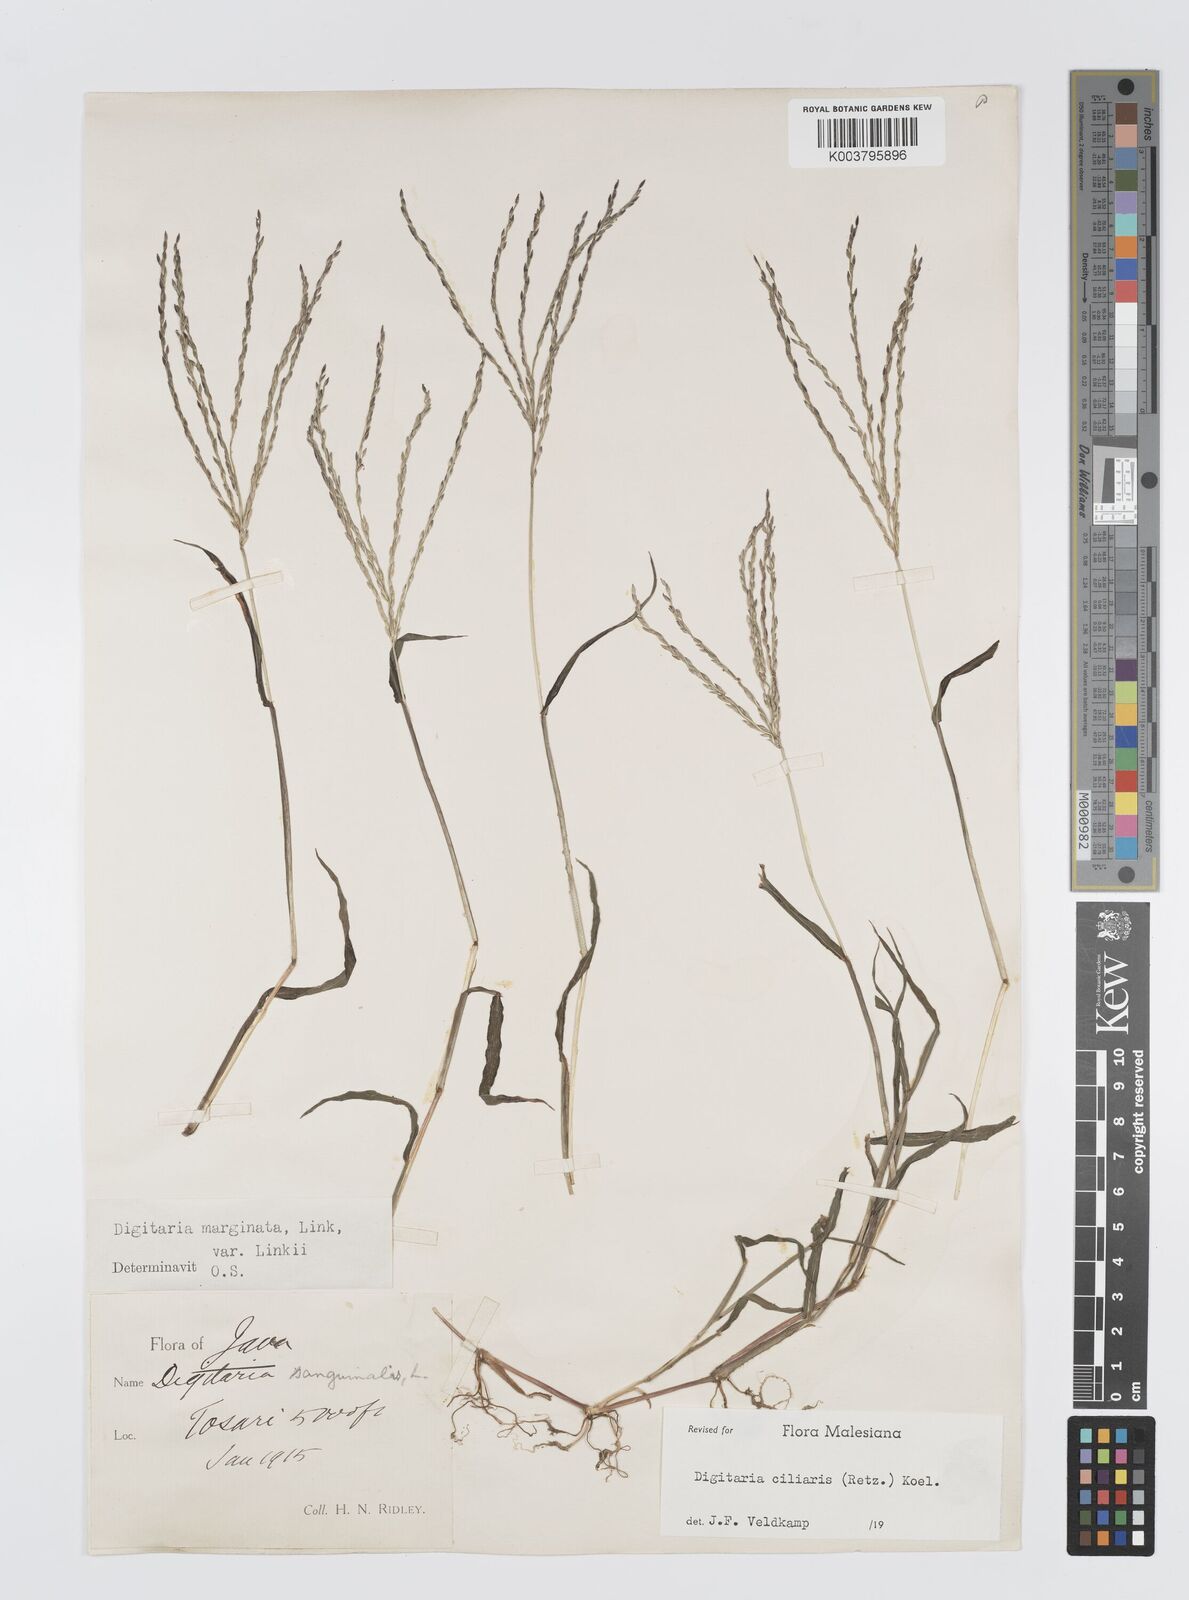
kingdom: Plantae
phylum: Tracheophyta
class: Liliopsida
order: Poales
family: Poaceae
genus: Digitaria
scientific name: Digitaria ciliaris
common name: Tropical finger-grass
